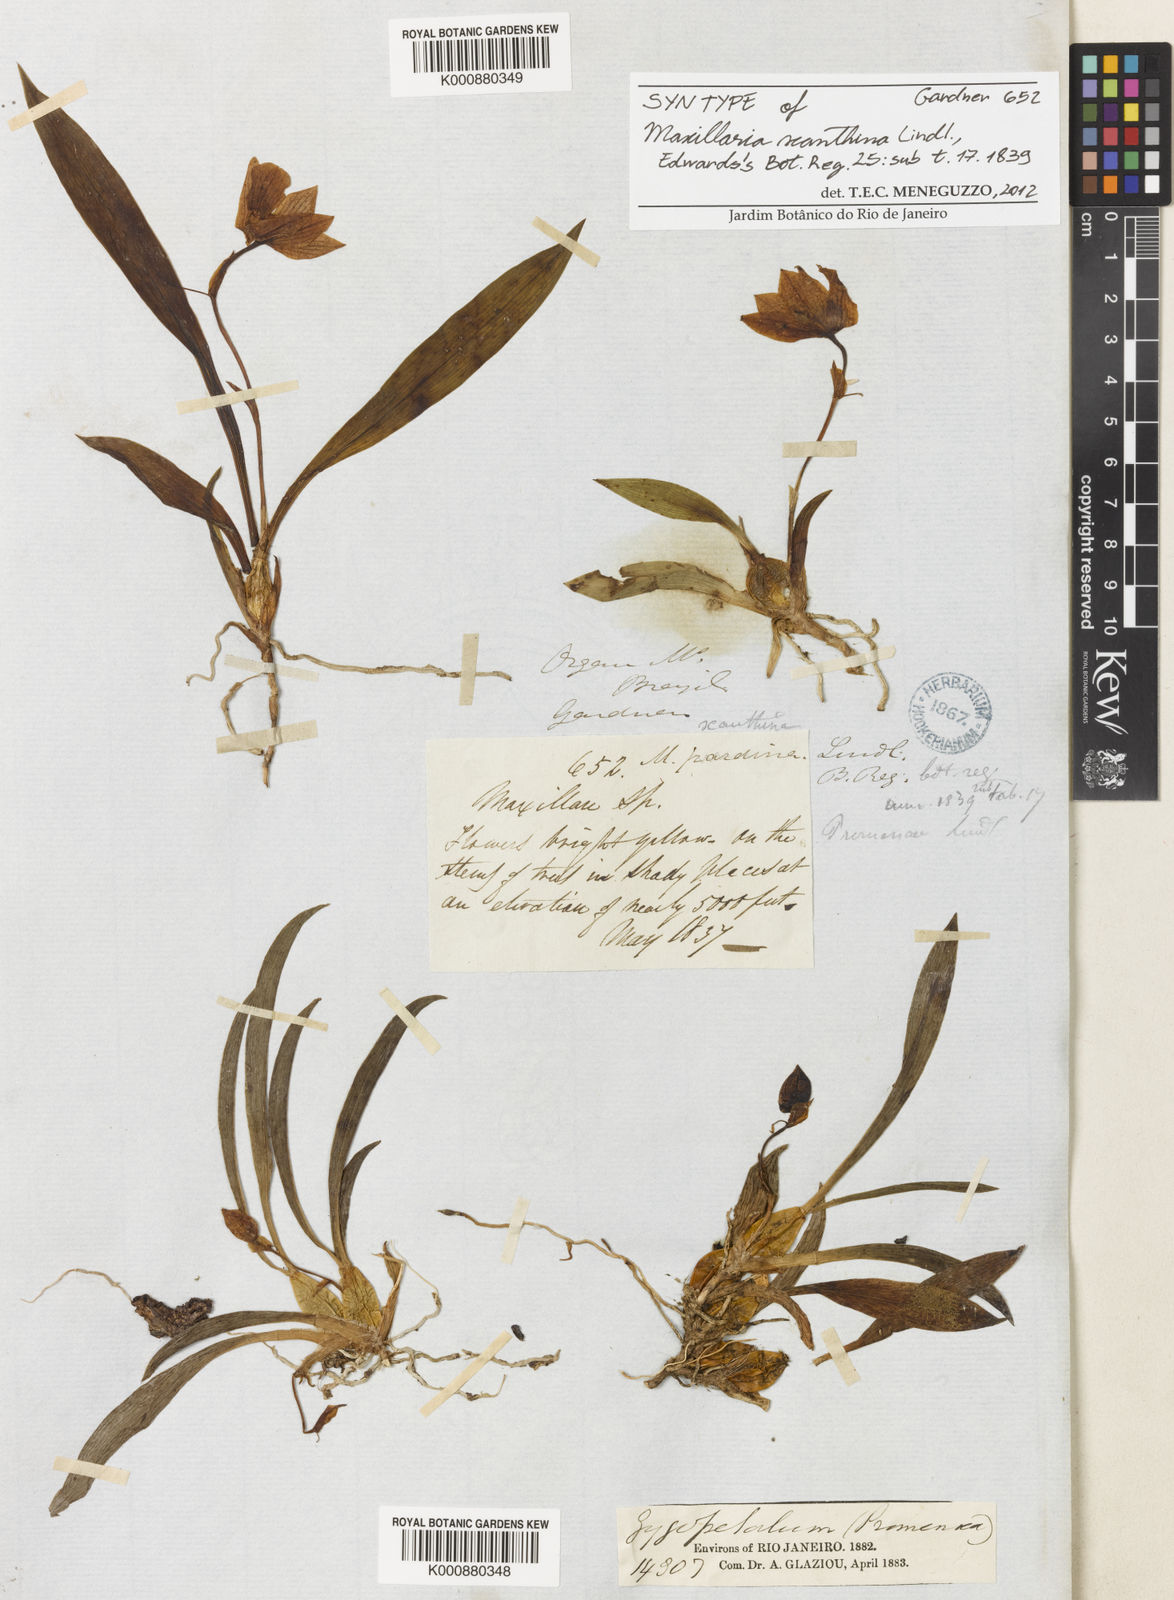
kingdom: Plantae
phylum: Tracheophyta
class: Liliopsida
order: Asparagales
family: Orchidaceae
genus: Promenaea
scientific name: Promenaea xanthina
